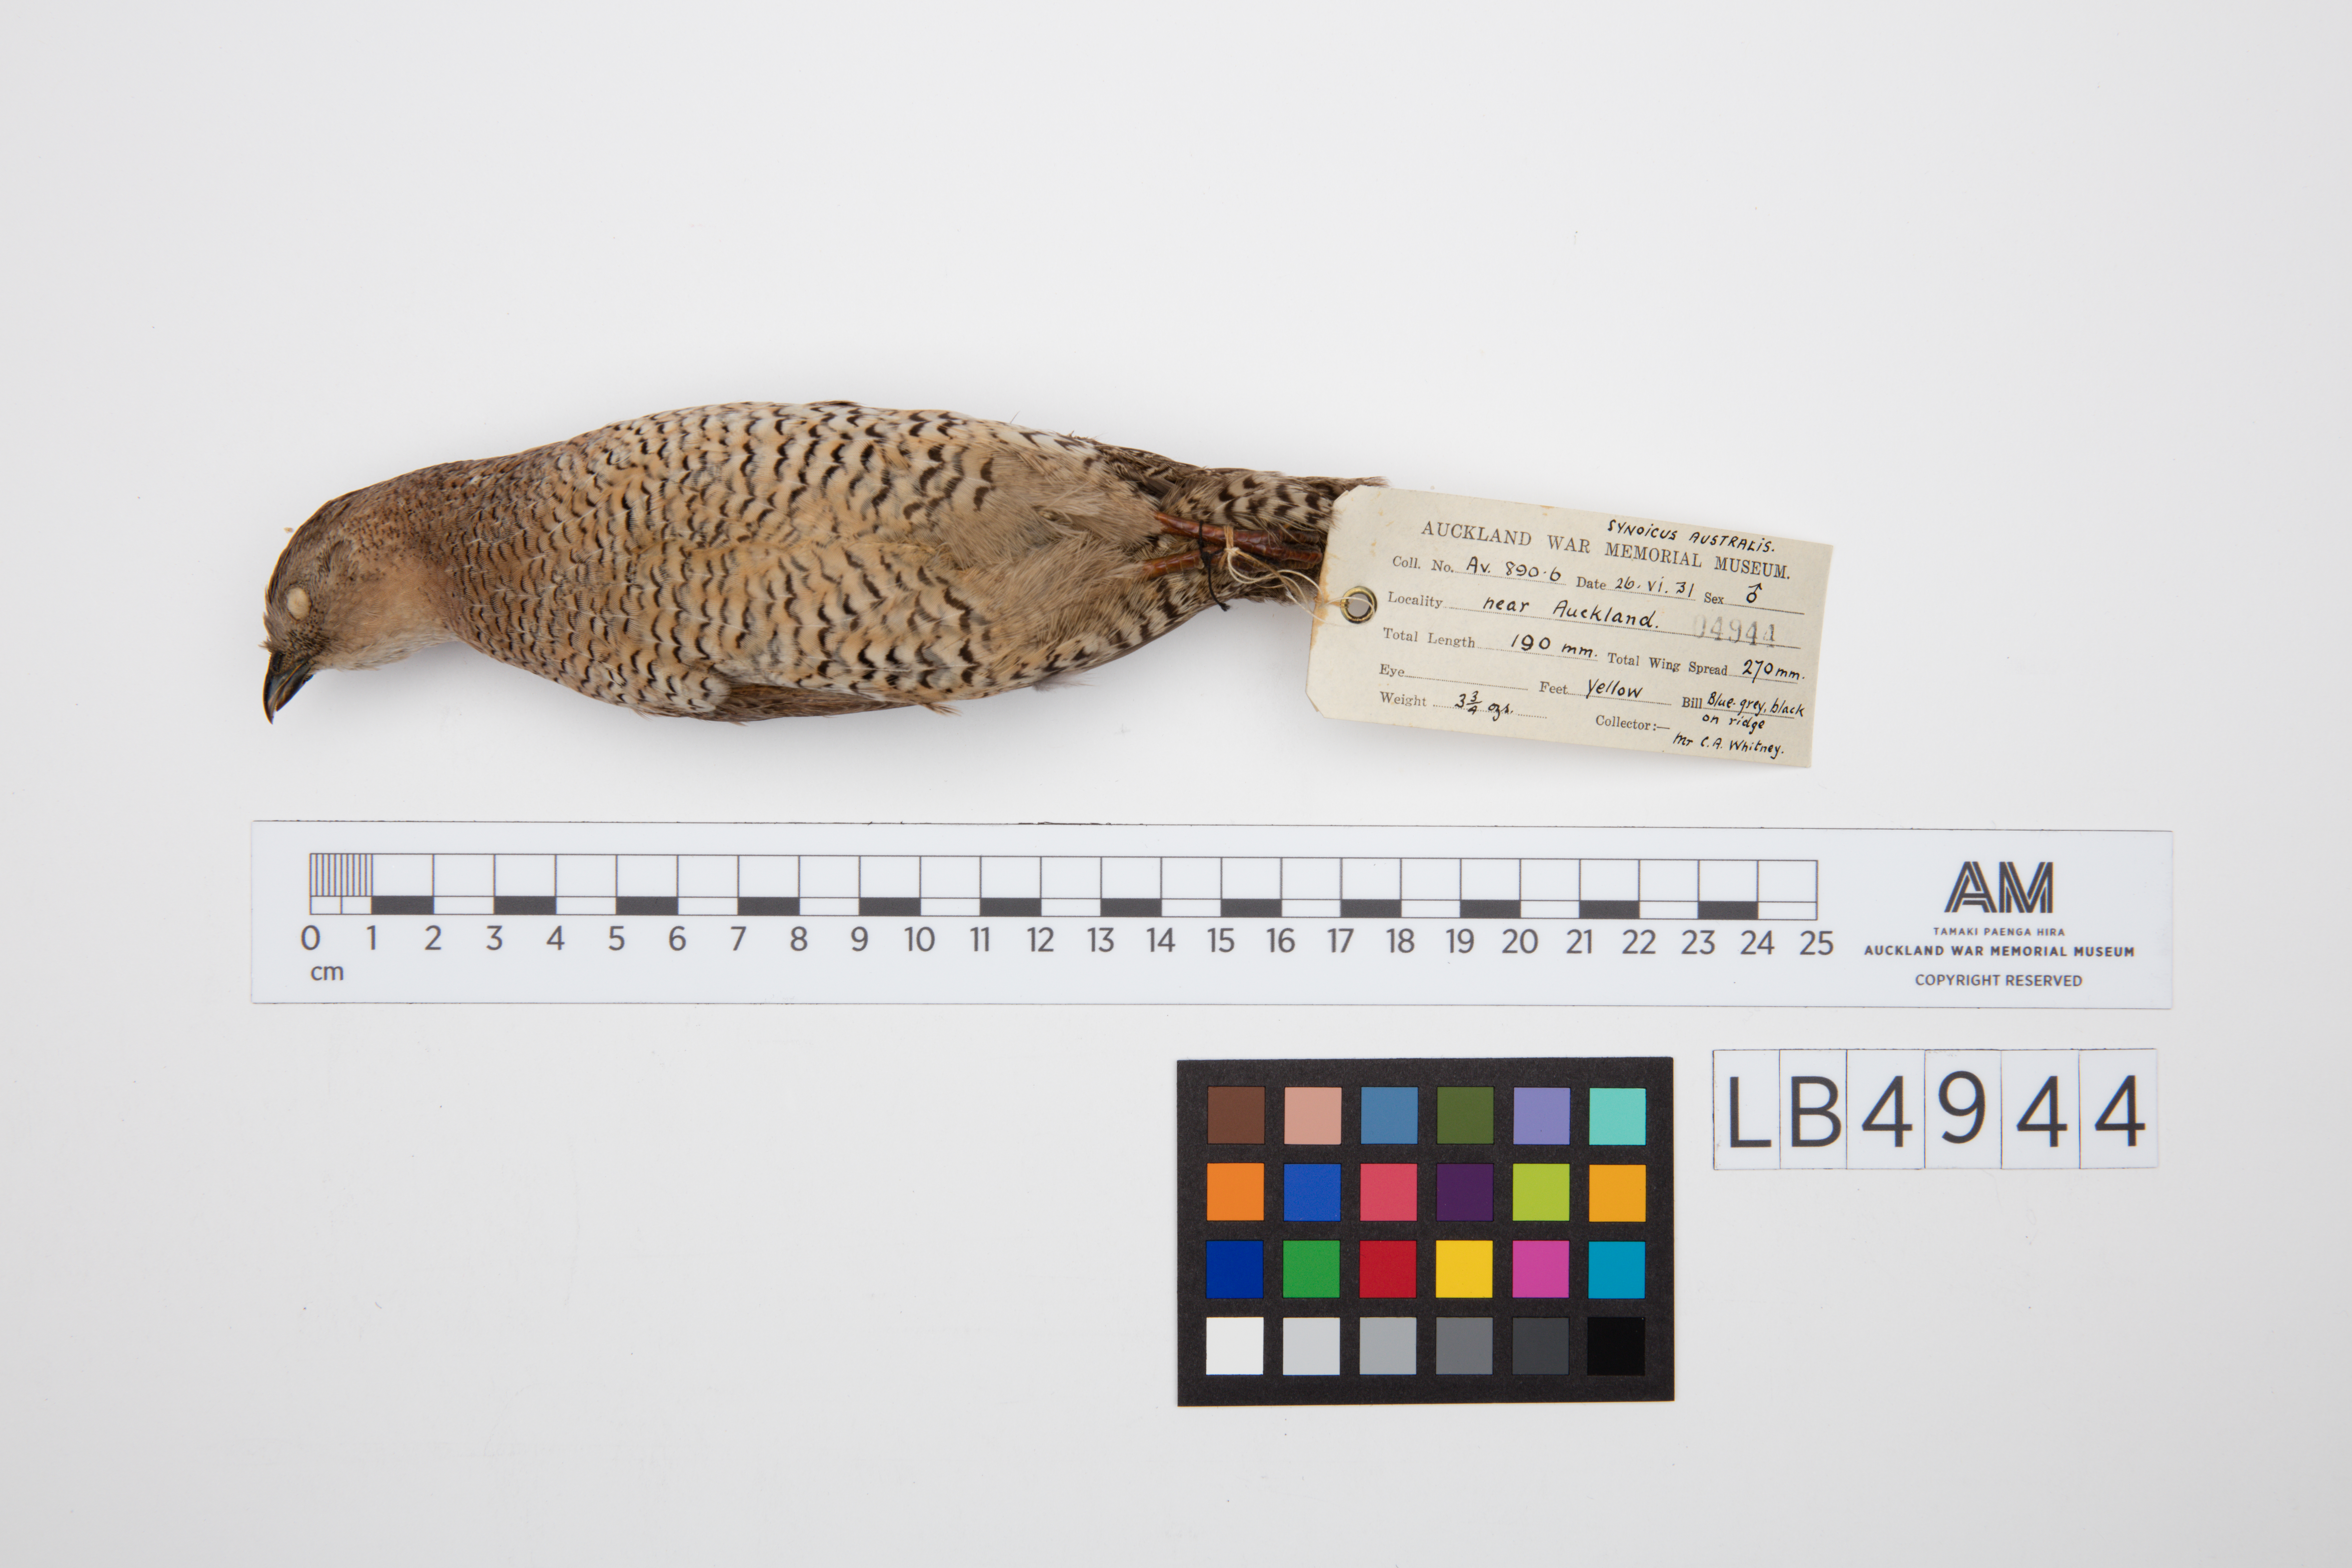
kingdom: Animalia
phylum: Chordata
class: Aves
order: Galliformes
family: Phasianidae
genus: Synoicus
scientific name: Synoicus ypsilophorus
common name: Brown quail
